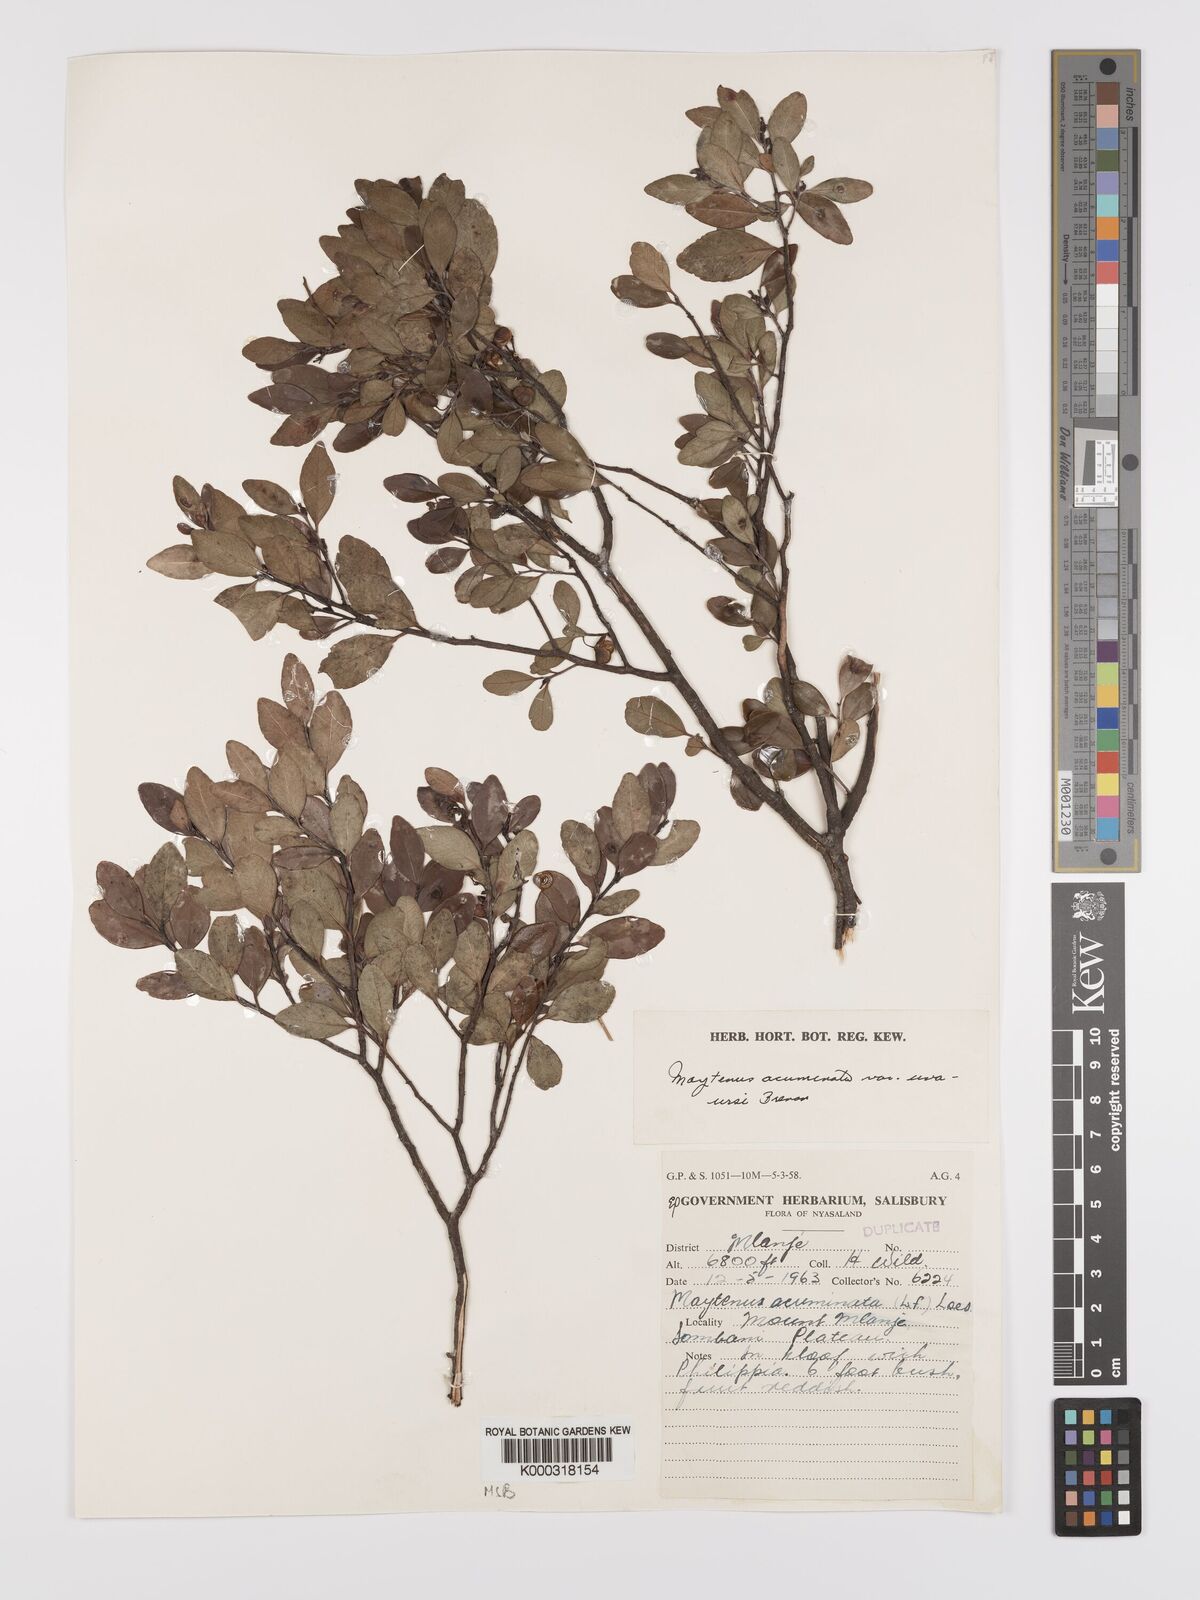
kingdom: Plantae
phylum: Tracheophyta
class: Magnoliopsida
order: Celastrales
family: Celastraceae
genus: Maytenus
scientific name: Maytenus
